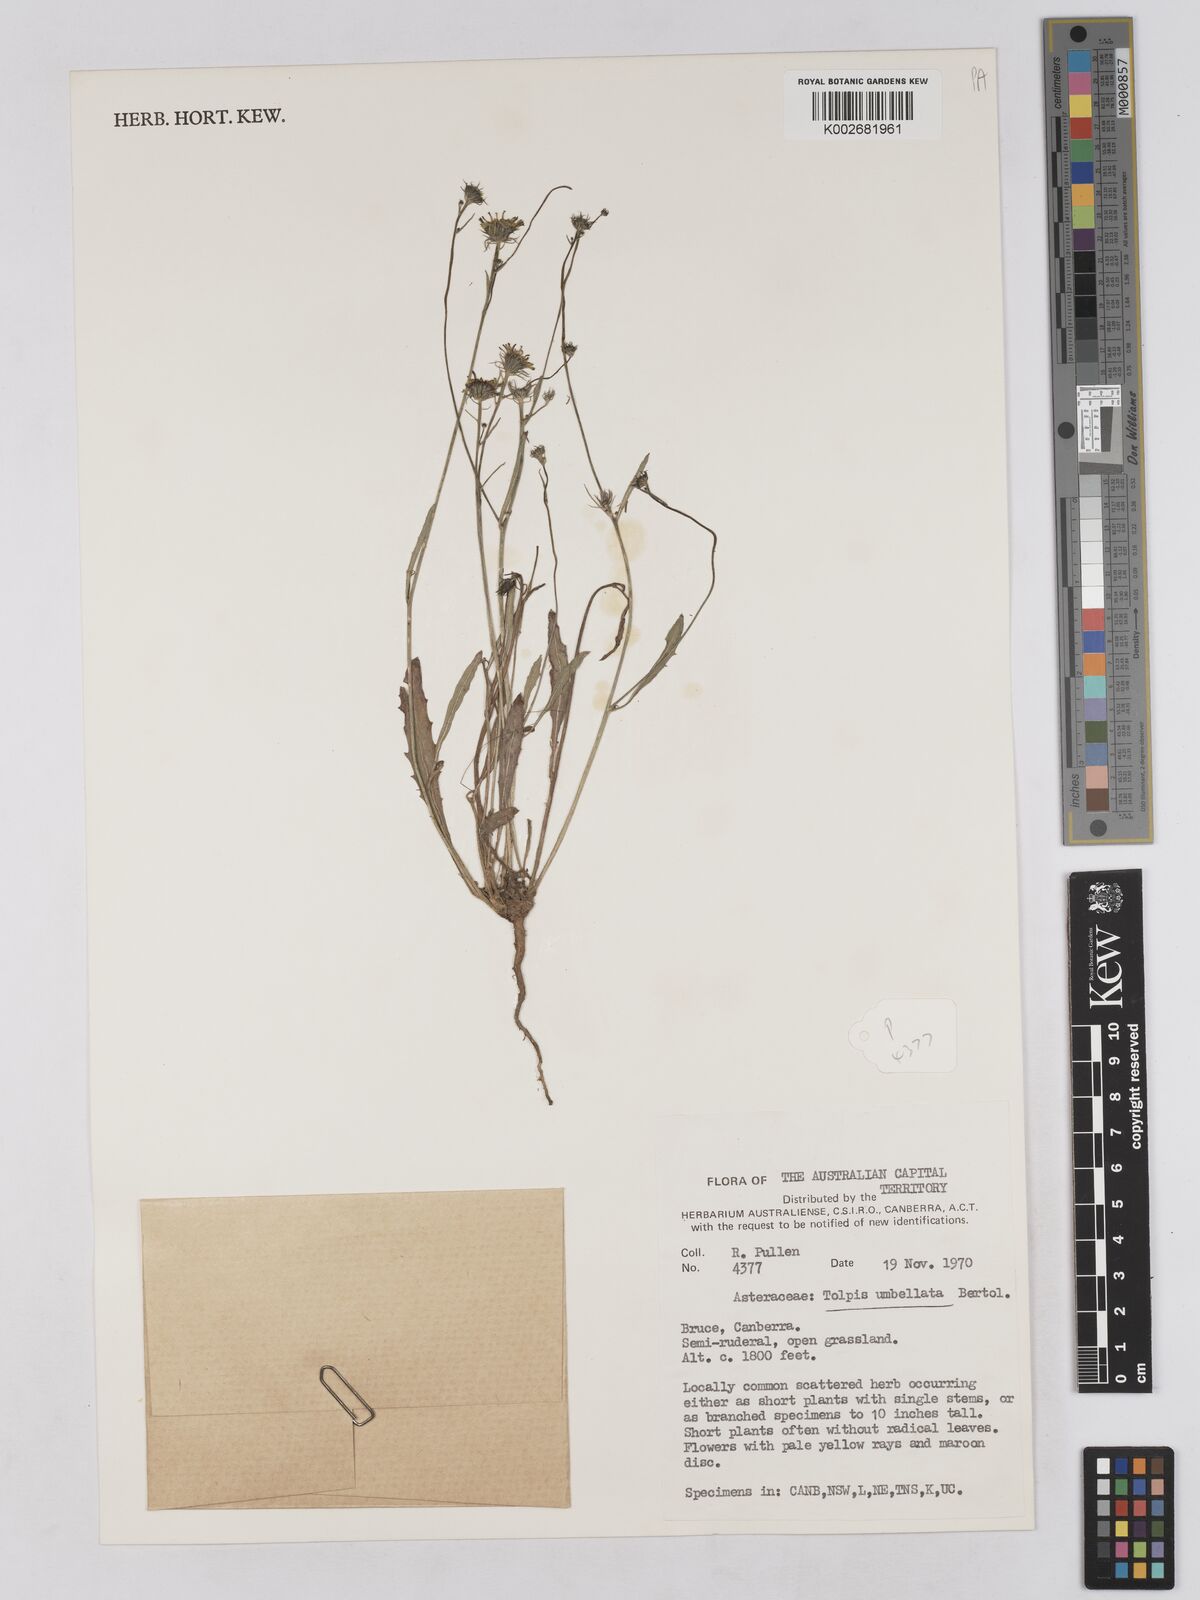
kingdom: Plantae
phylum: Tracheophyta
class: Magnoliopsida
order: Asterales
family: Asteraceae
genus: Tolpis
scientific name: Tolpis umbellata
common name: Yellow hawkweed
